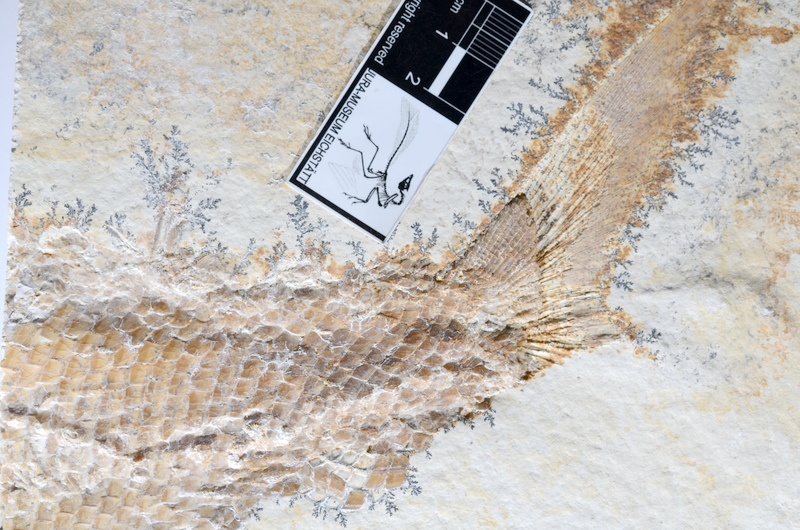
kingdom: Animalia
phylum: Chordata
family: Ankylophoridae
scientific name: Ankylophoridae
